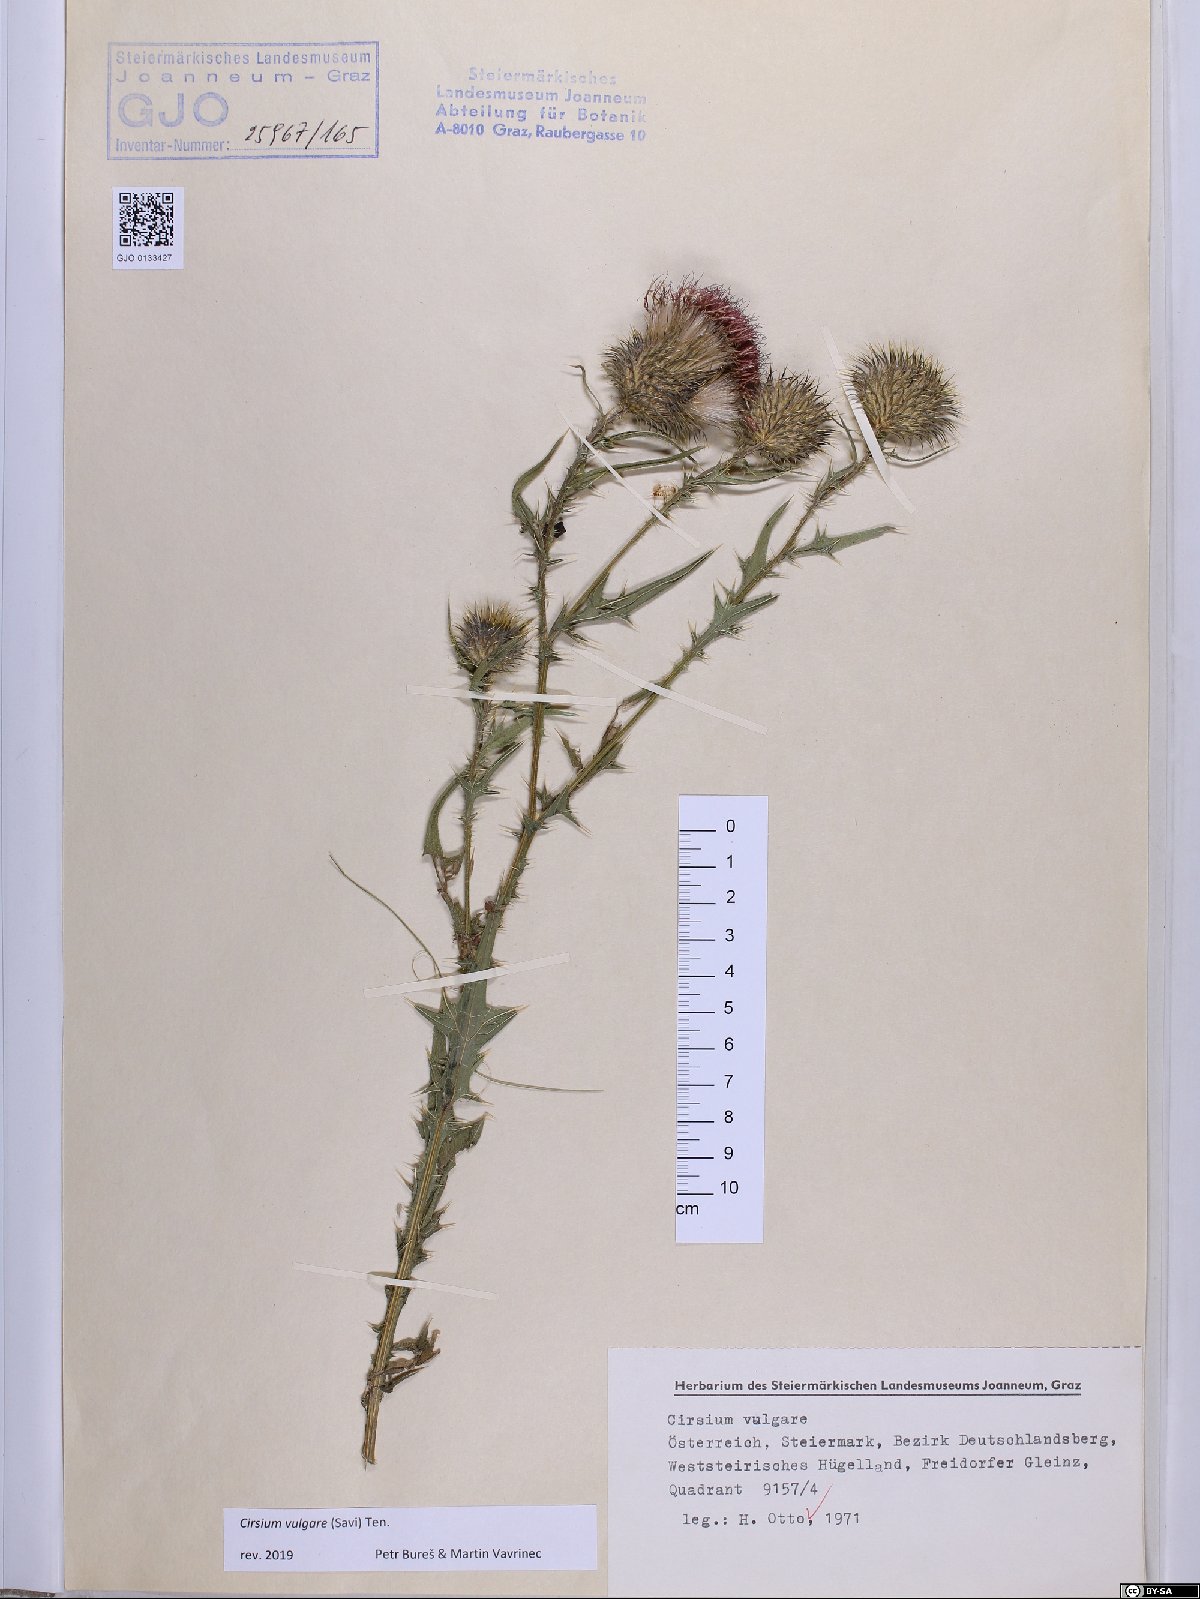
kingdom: Plantae
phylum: Tracheophyta
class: Magnoliopsida
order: Asterales
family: Asteraceae
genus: Cirsium
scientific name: Cirsium vulgare
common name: Bull thistle
